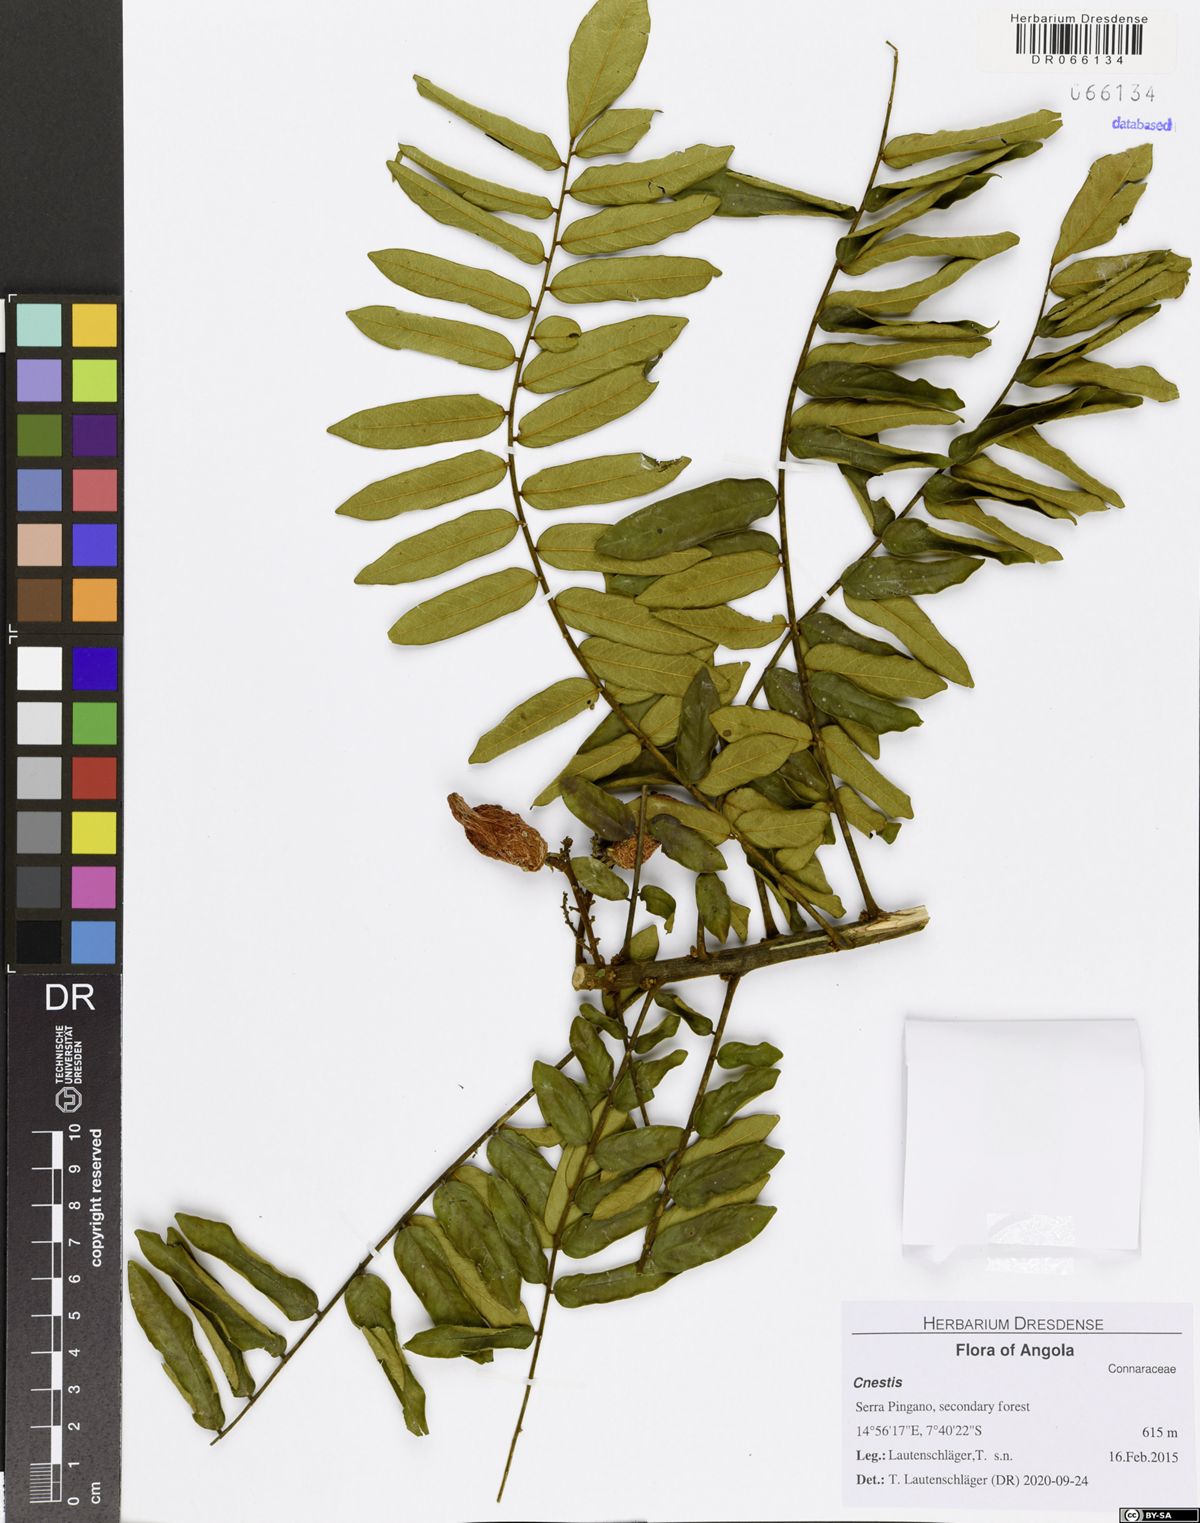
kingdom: Plantae
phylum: Tracheophyta
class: Magnoliopsida
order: Oxalidales
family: Connaraceae
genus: Cnestis
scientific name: Cnestis ferruginea
